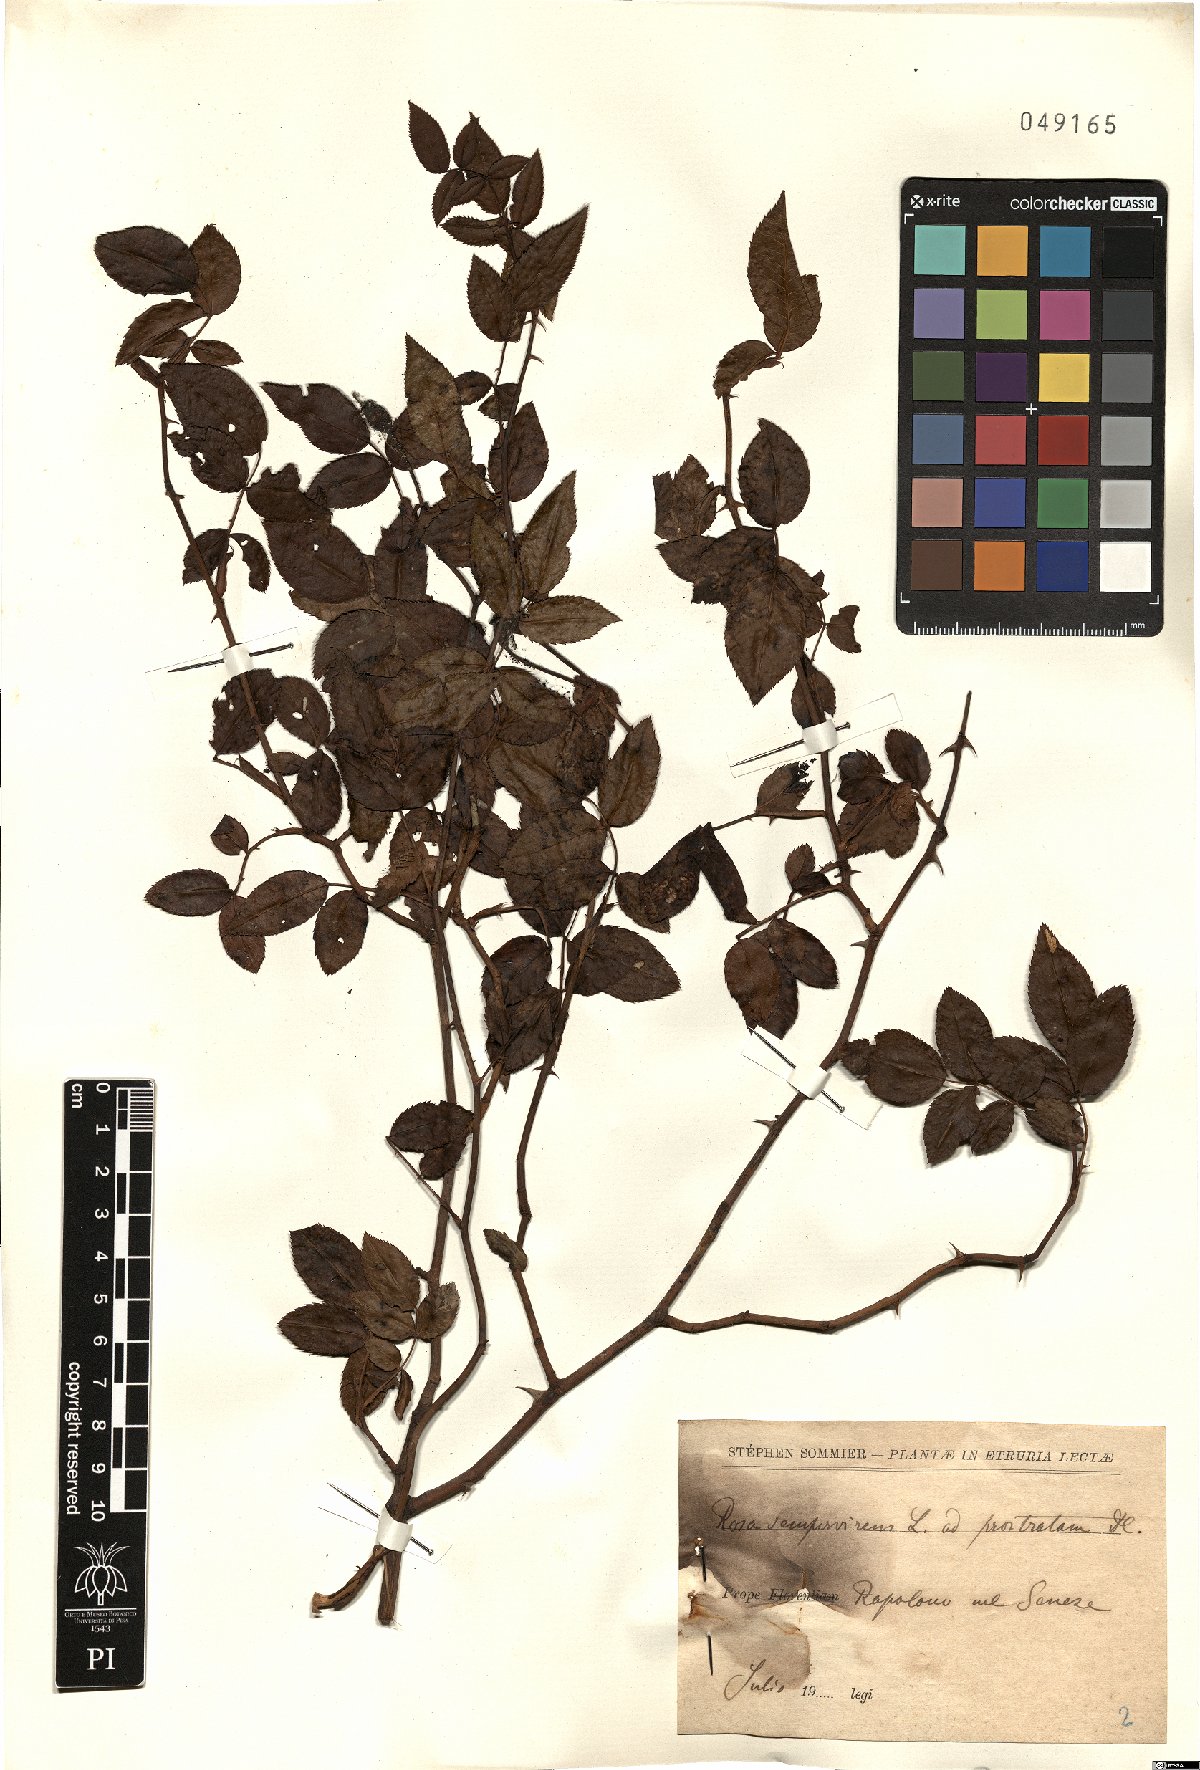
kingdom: Plantae
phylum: Tracheophyta
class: Magnoliopsida
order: Rosales
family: Rosaceae
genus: Rosa
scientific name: Rosa sempervirens
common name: Evergreen rose
